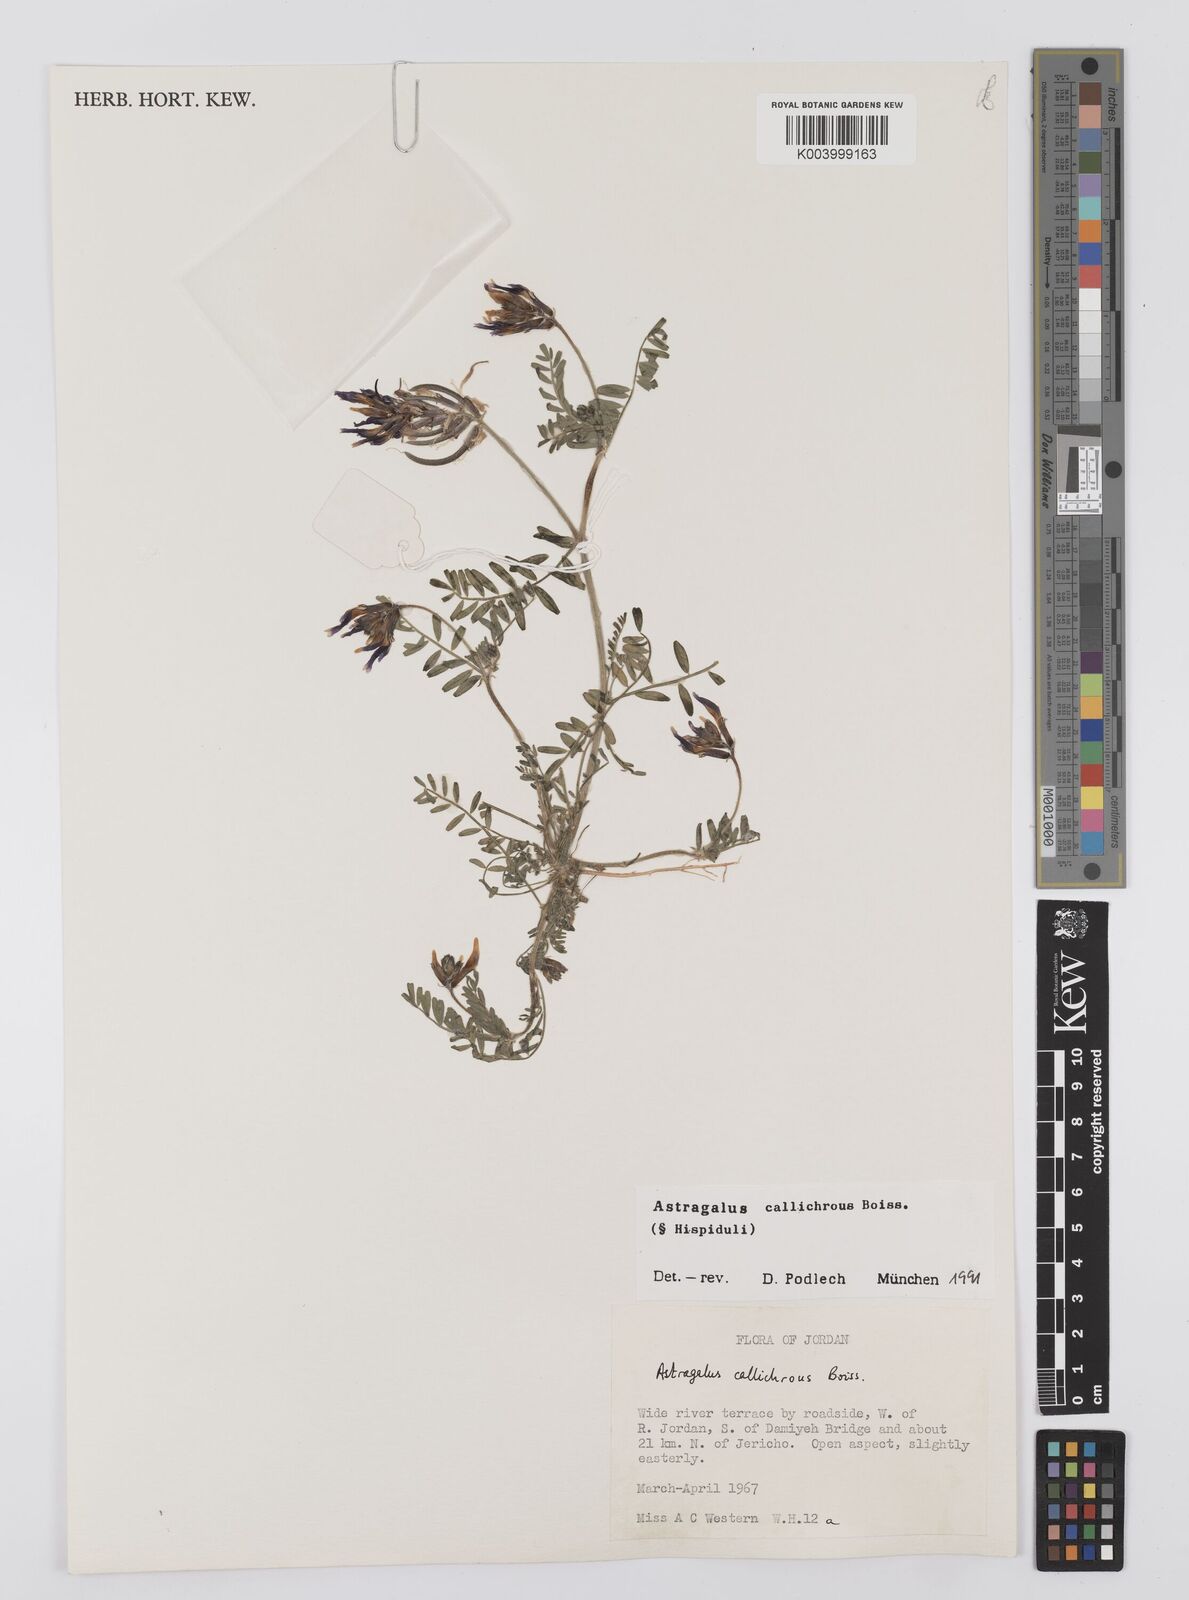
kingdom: Plantae
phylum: Tracheophyta
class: Magnoliopsida
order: Fabales
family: Fabaceae
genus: Astragalus
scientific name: Astragalus callichrous
